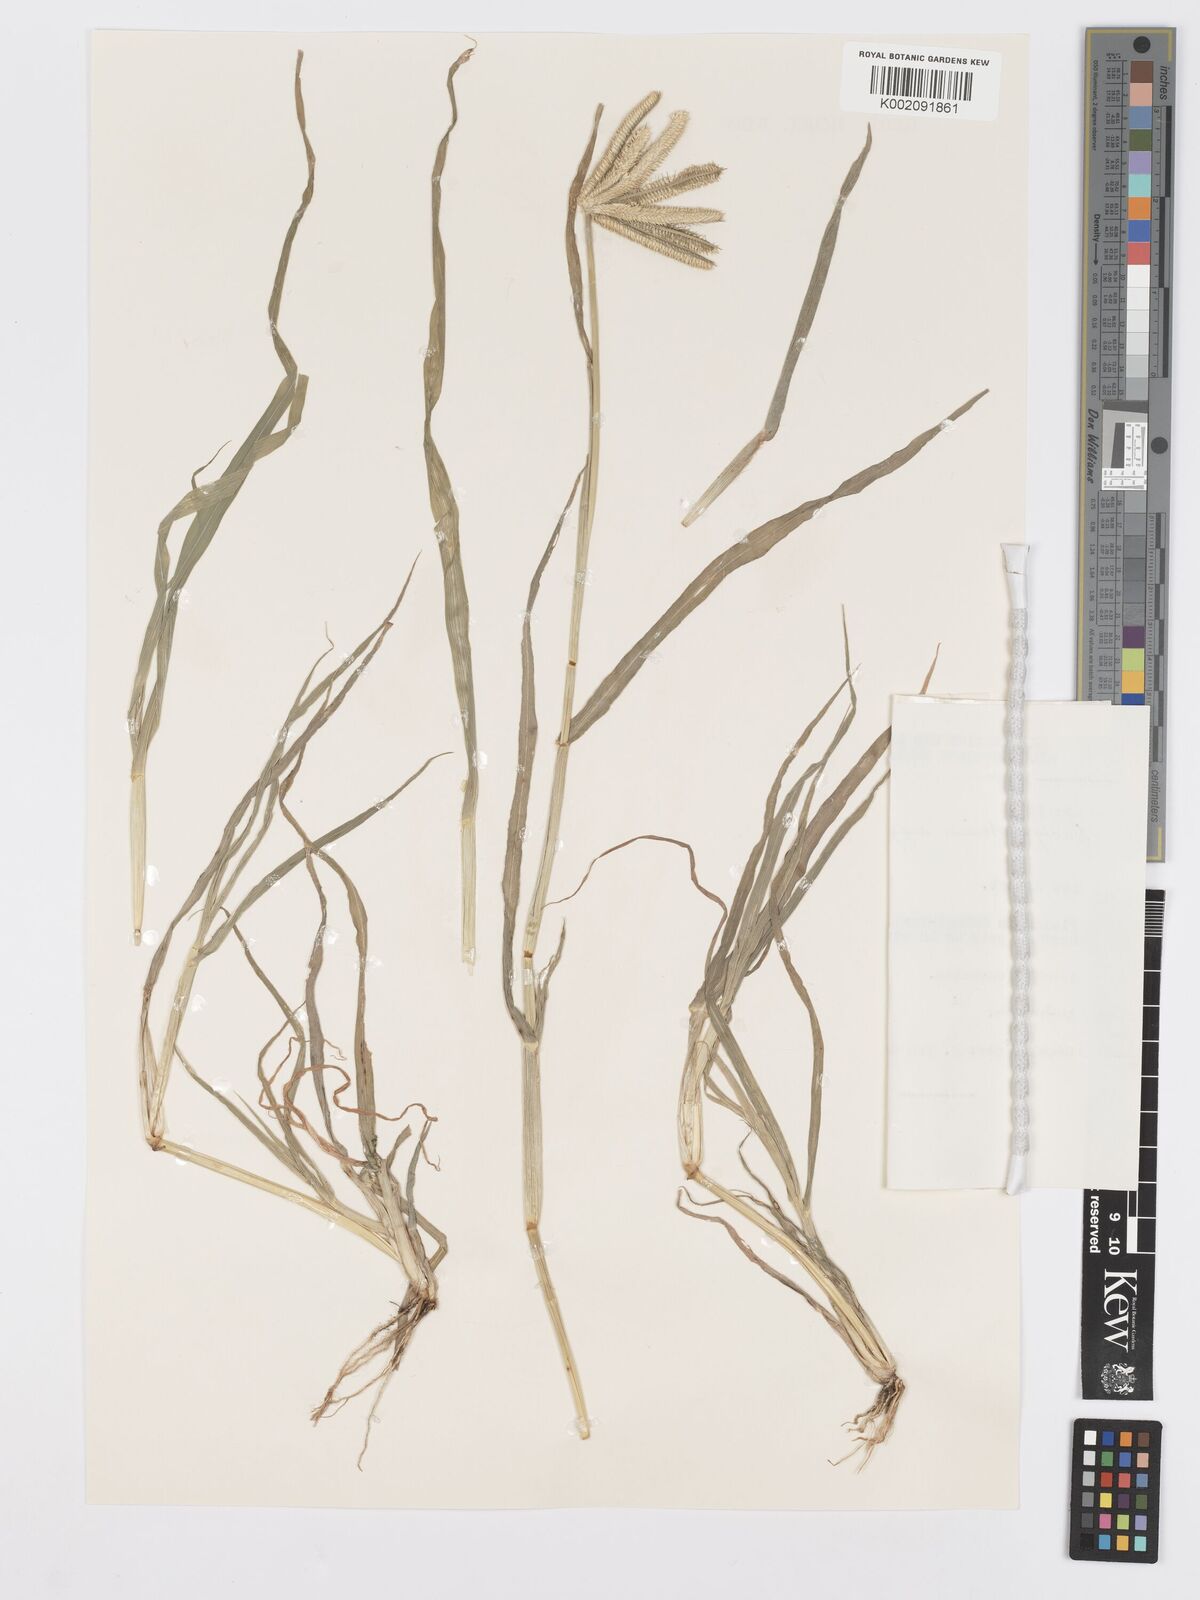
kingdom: Plantae
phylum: Tracheophyta
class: Liliopsida
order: Poales
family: Poaceae
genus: Dactyloctenium
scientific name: Dactyloctenium aegyptium
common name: Egyptian grass
